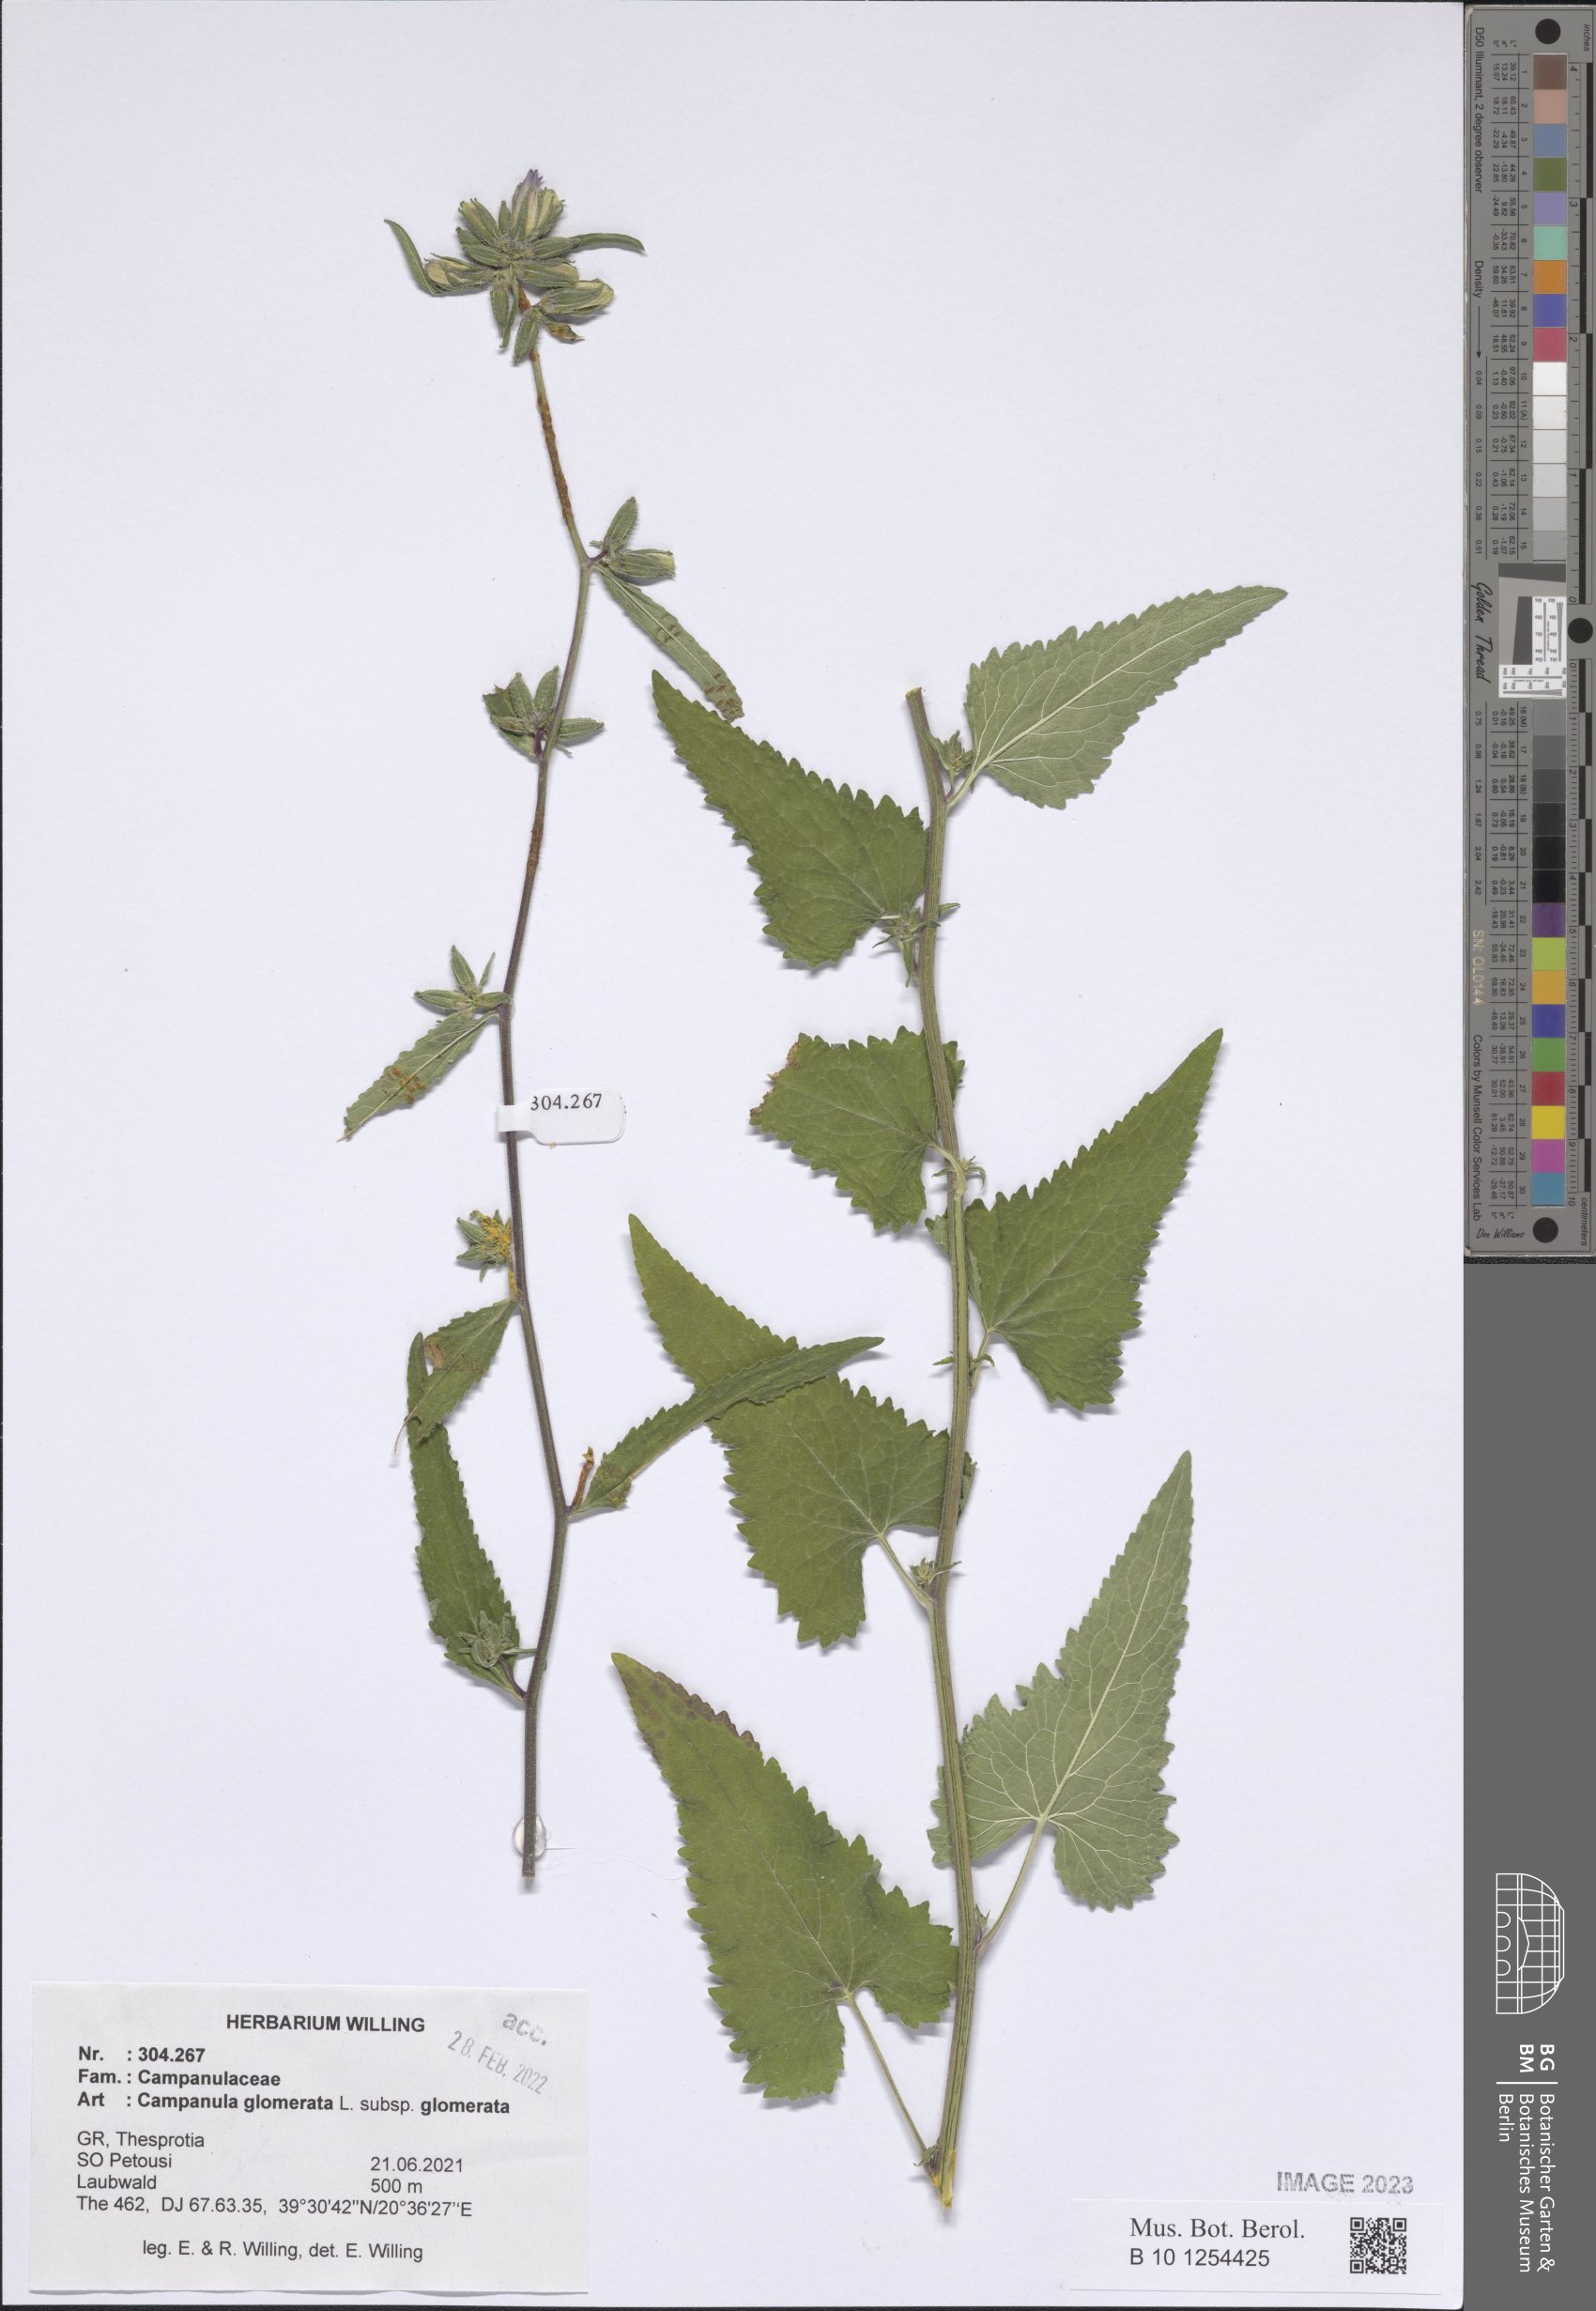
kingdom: Plantae
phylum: Tracheophyta
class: Magnoliopsida
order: Asterales
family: Campanulaceae
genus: Campanula
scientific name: Campanula glomerata
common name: Clustered bellflower
